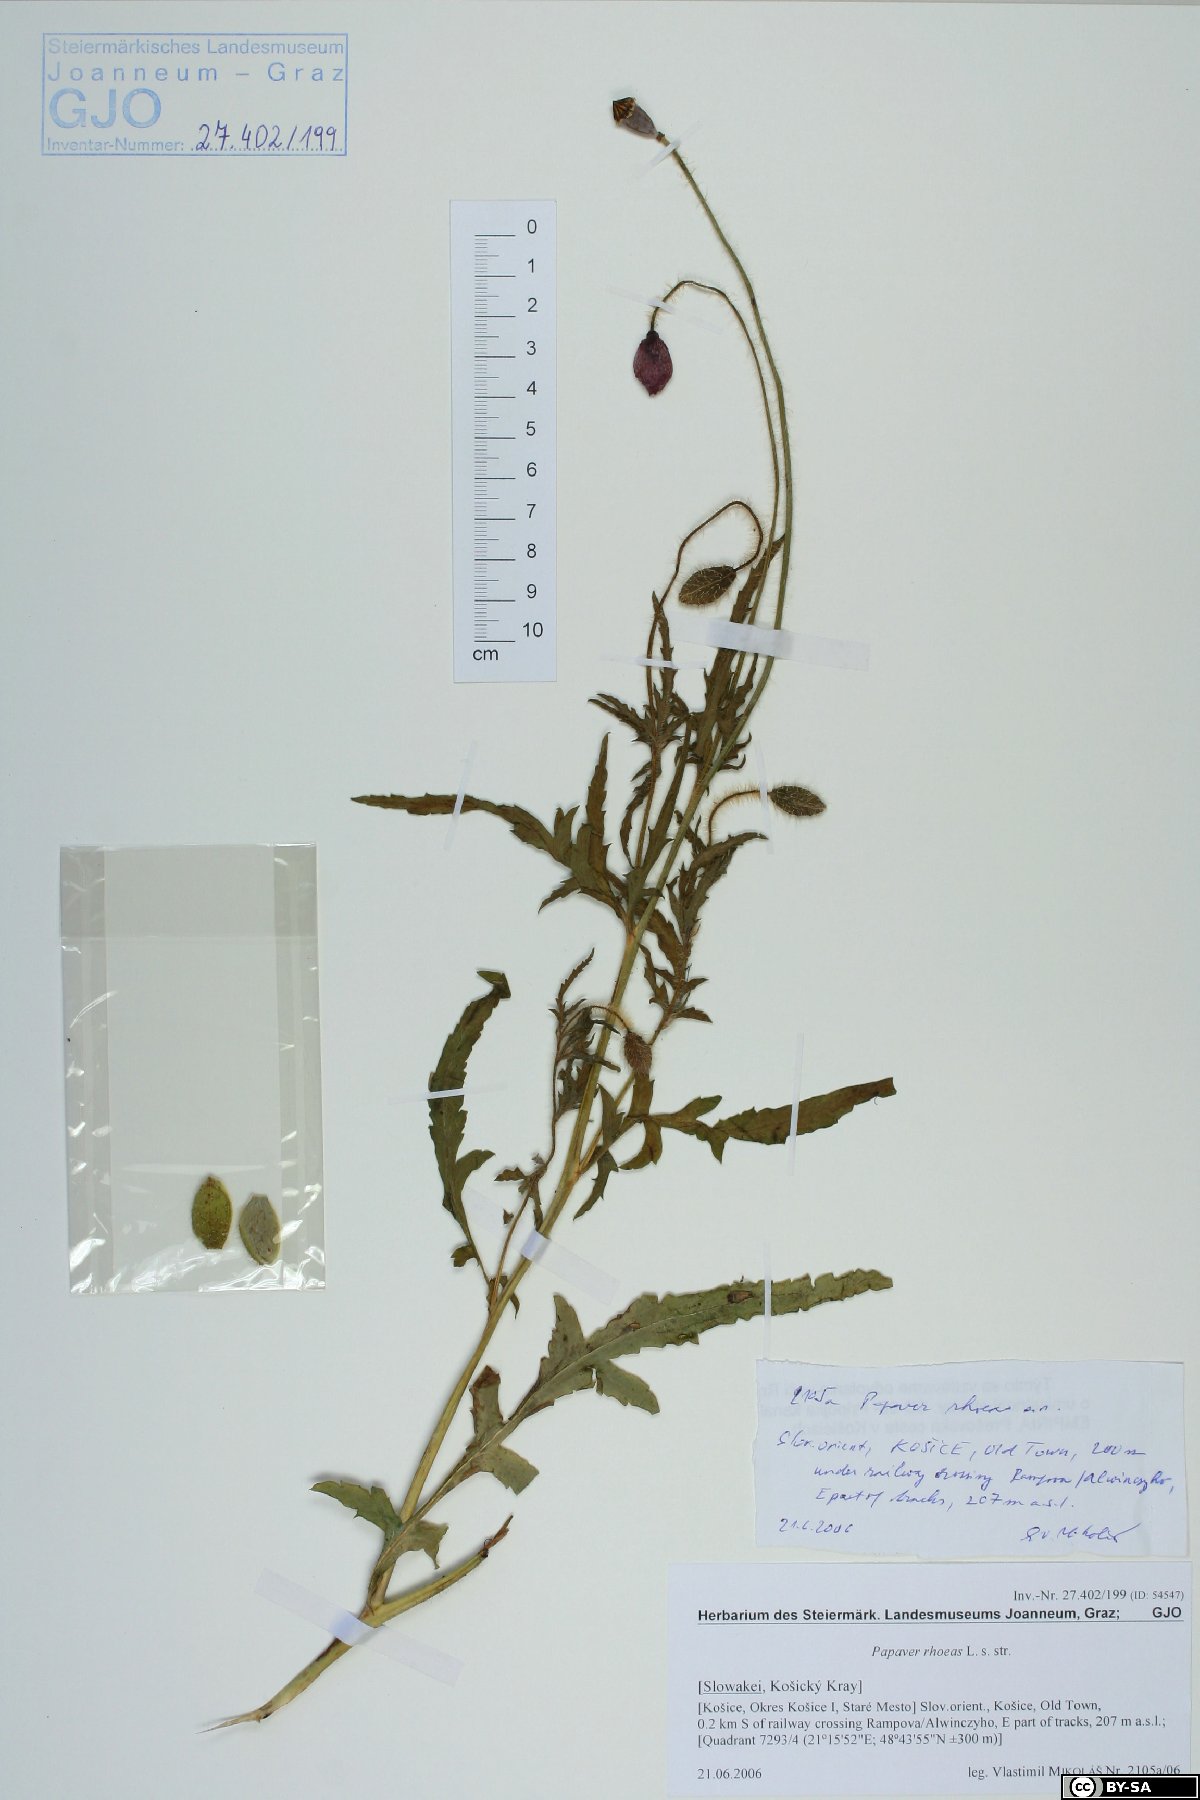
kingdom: Plantae
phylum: Tracheophyta
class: Magnoliopsida
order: Ranunculales
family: Papaveraceae
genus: Papaver
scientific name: Papaver rhoeas
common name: Corn poppy
